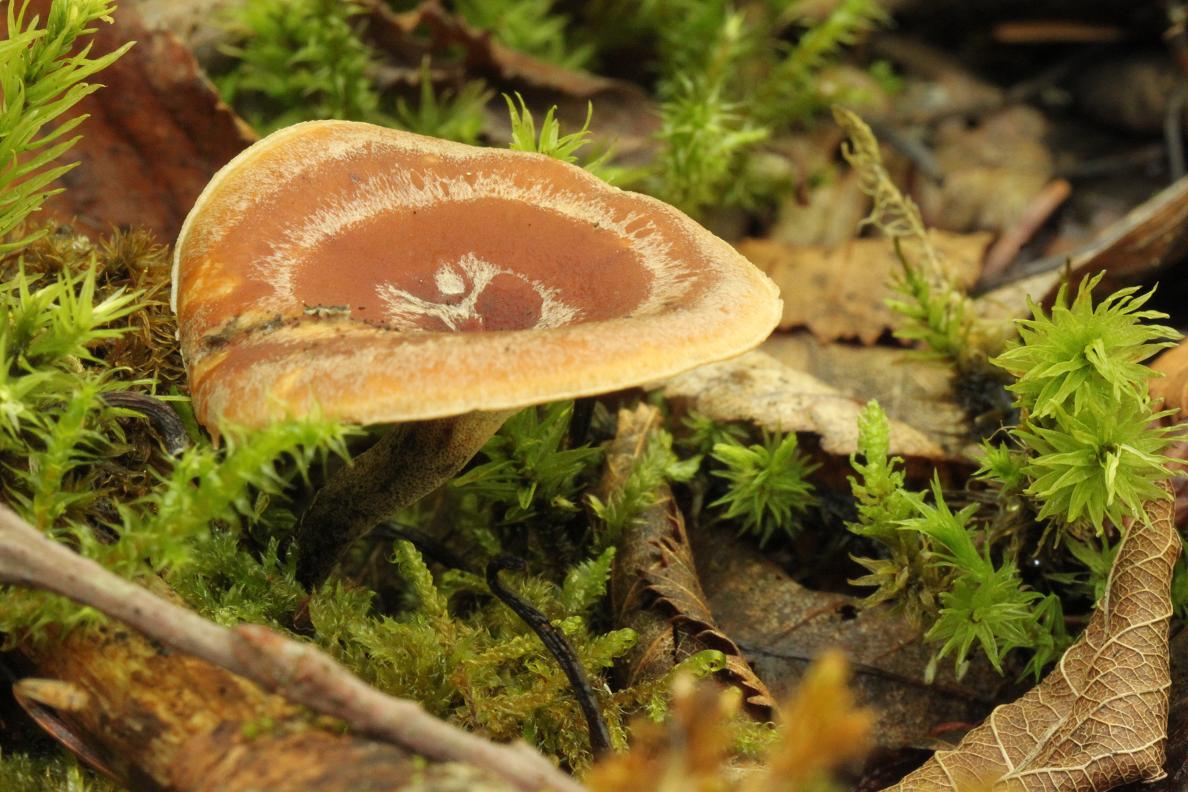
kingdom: Fungi
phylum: Basidiomycota
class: Agaricomycetes
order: Polyporales
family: Polyporaceae
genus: Picipes
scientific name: Picipes tubaeformis
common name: trompet-stilkporesvamp
